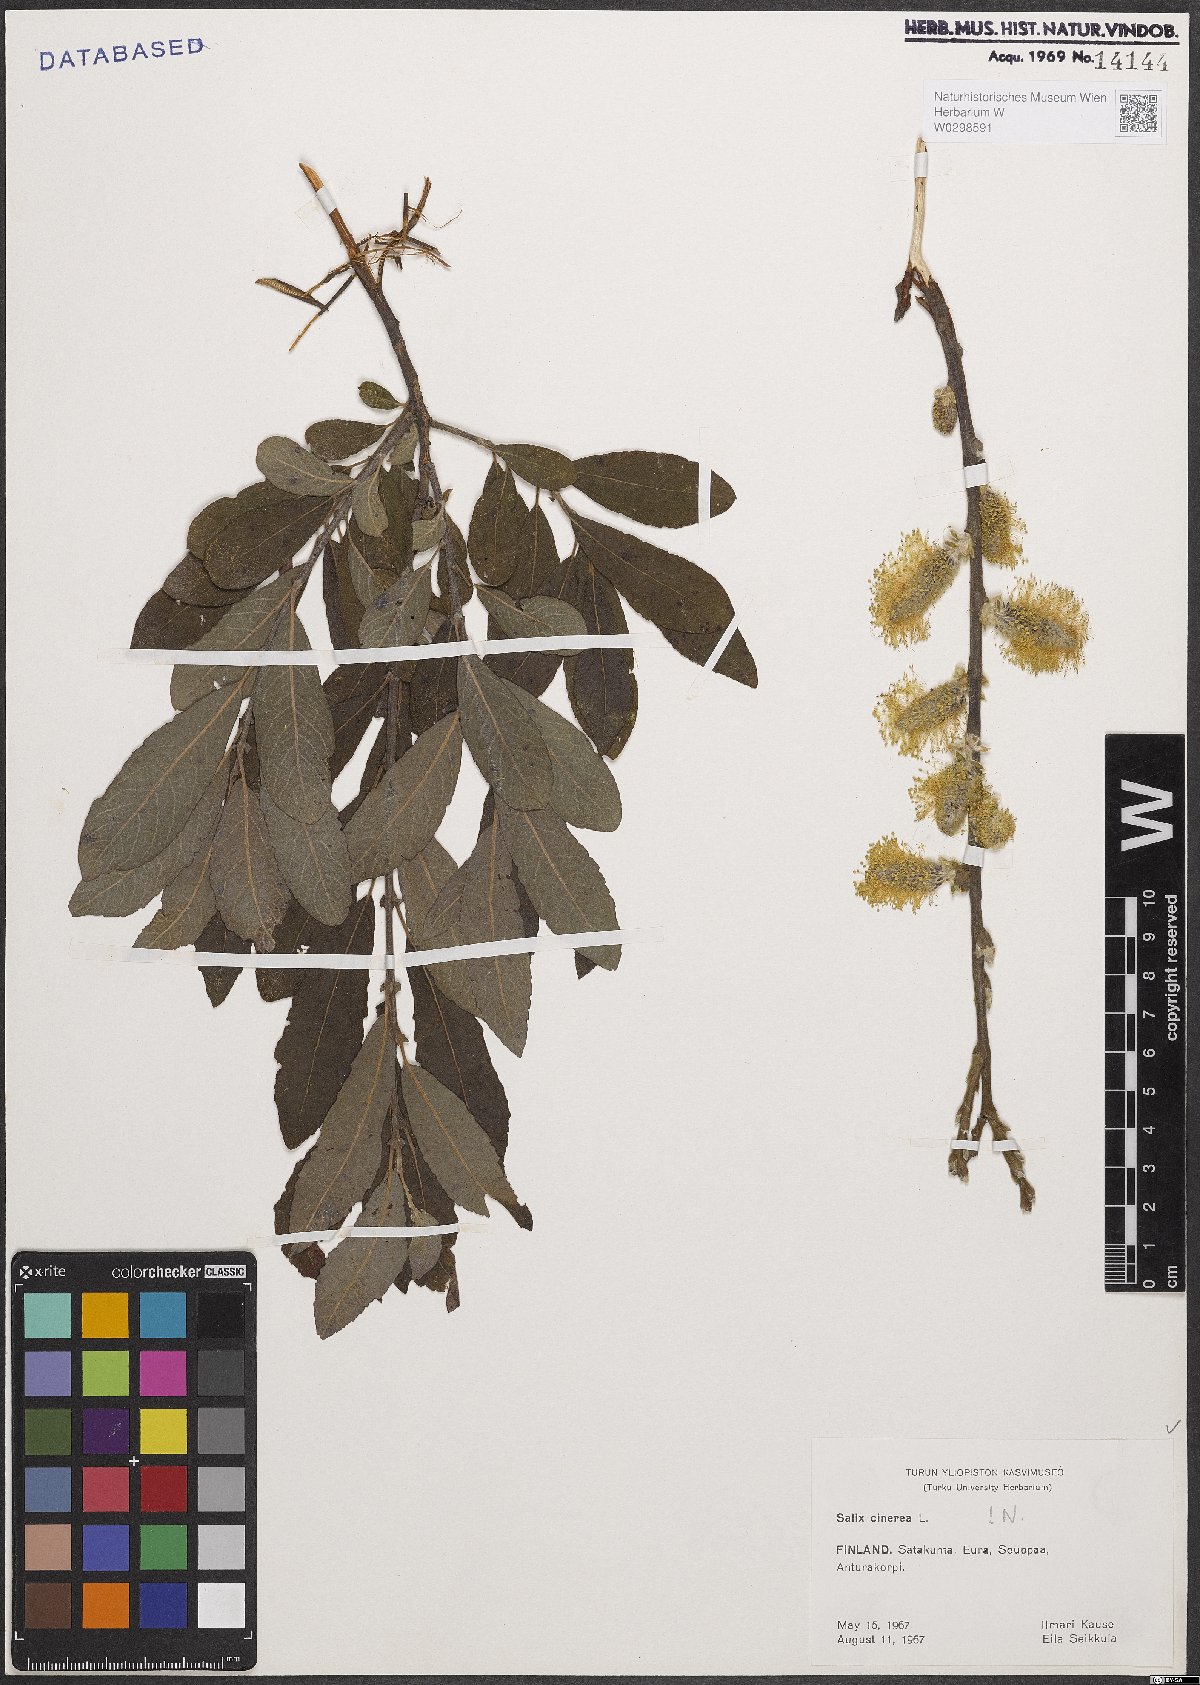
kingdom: Plantae
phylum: Tracheophyta
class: Magnoliopsida
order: Malpighiales
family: Salicaceae
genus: Salix
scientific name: Salix cinerea
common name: Common sallow
